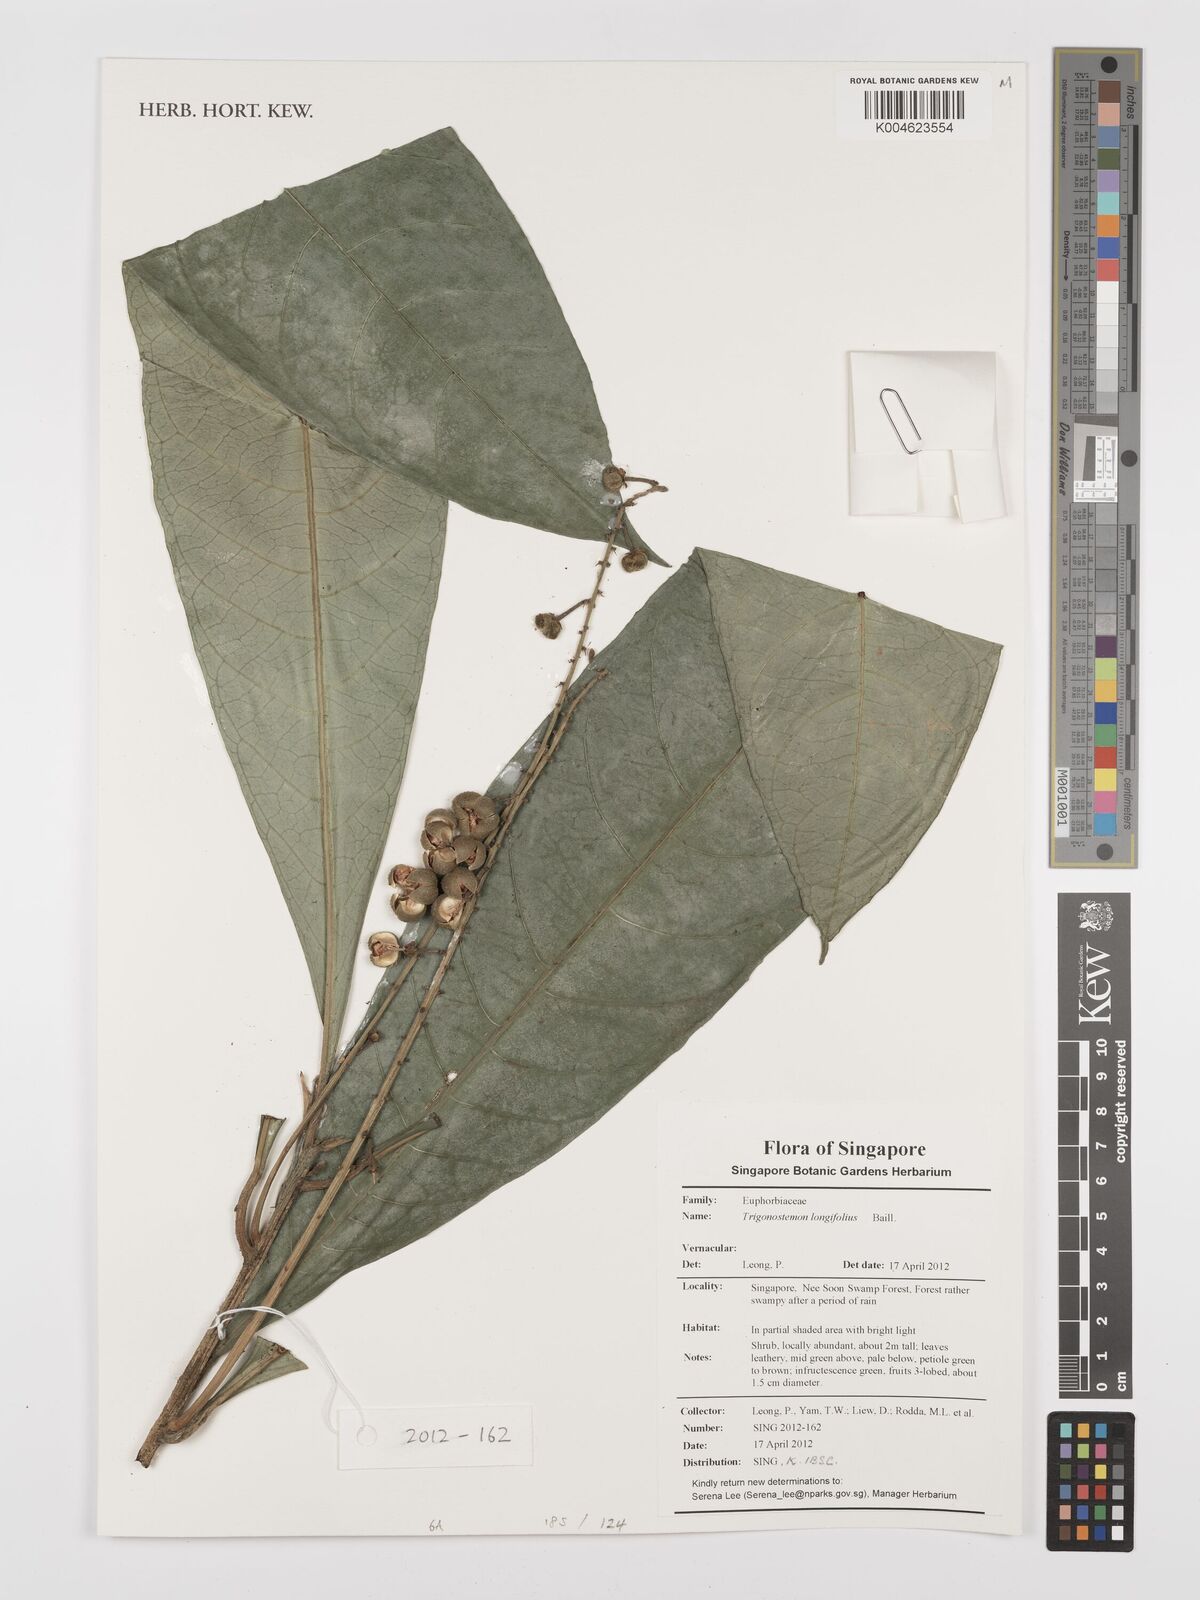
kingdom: Plantae
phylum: Tracheophyta
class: Magnoliopsida
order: Malpighiales
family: Euphorbiaceae
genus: Trigonostemon
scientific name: Trigonostemon longifolius
